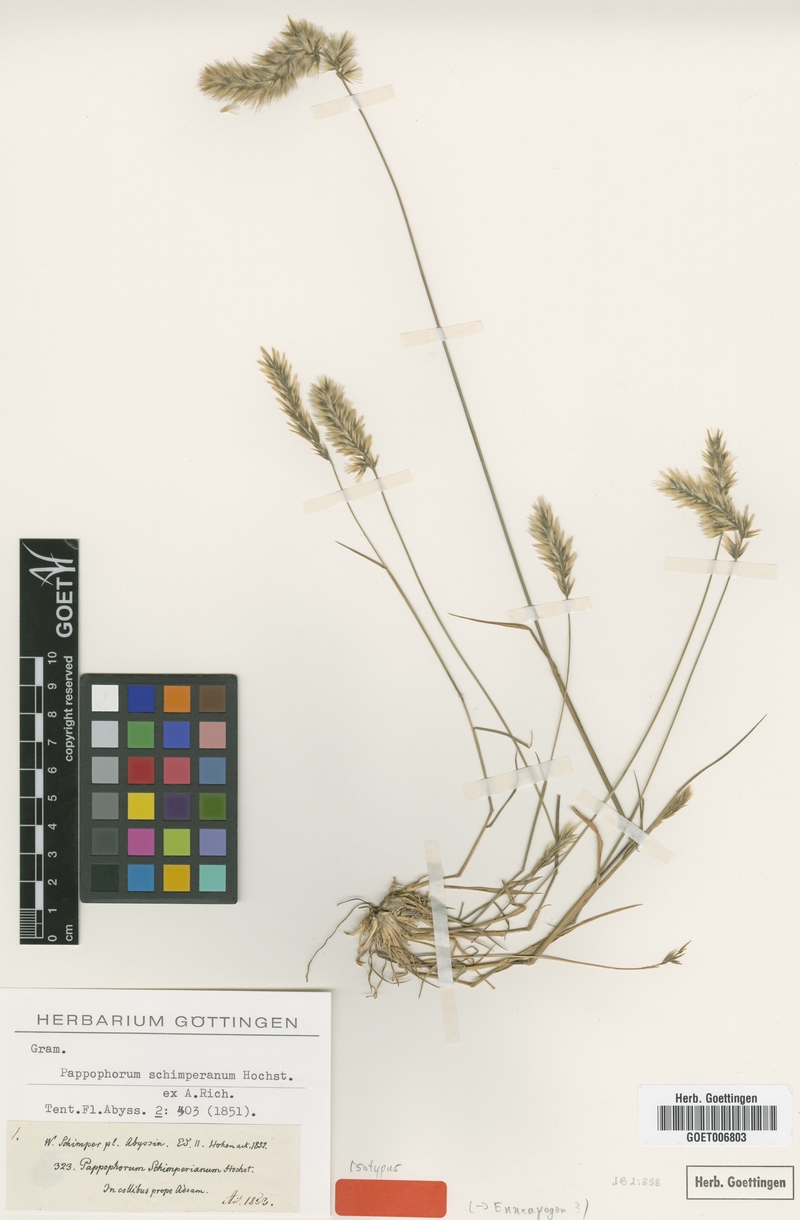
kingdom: Plantae
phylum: Tracheophyta
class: Liliopsida
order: Poales
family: Poaceae
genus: Enneapogon
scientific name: Enneapogon persicus
